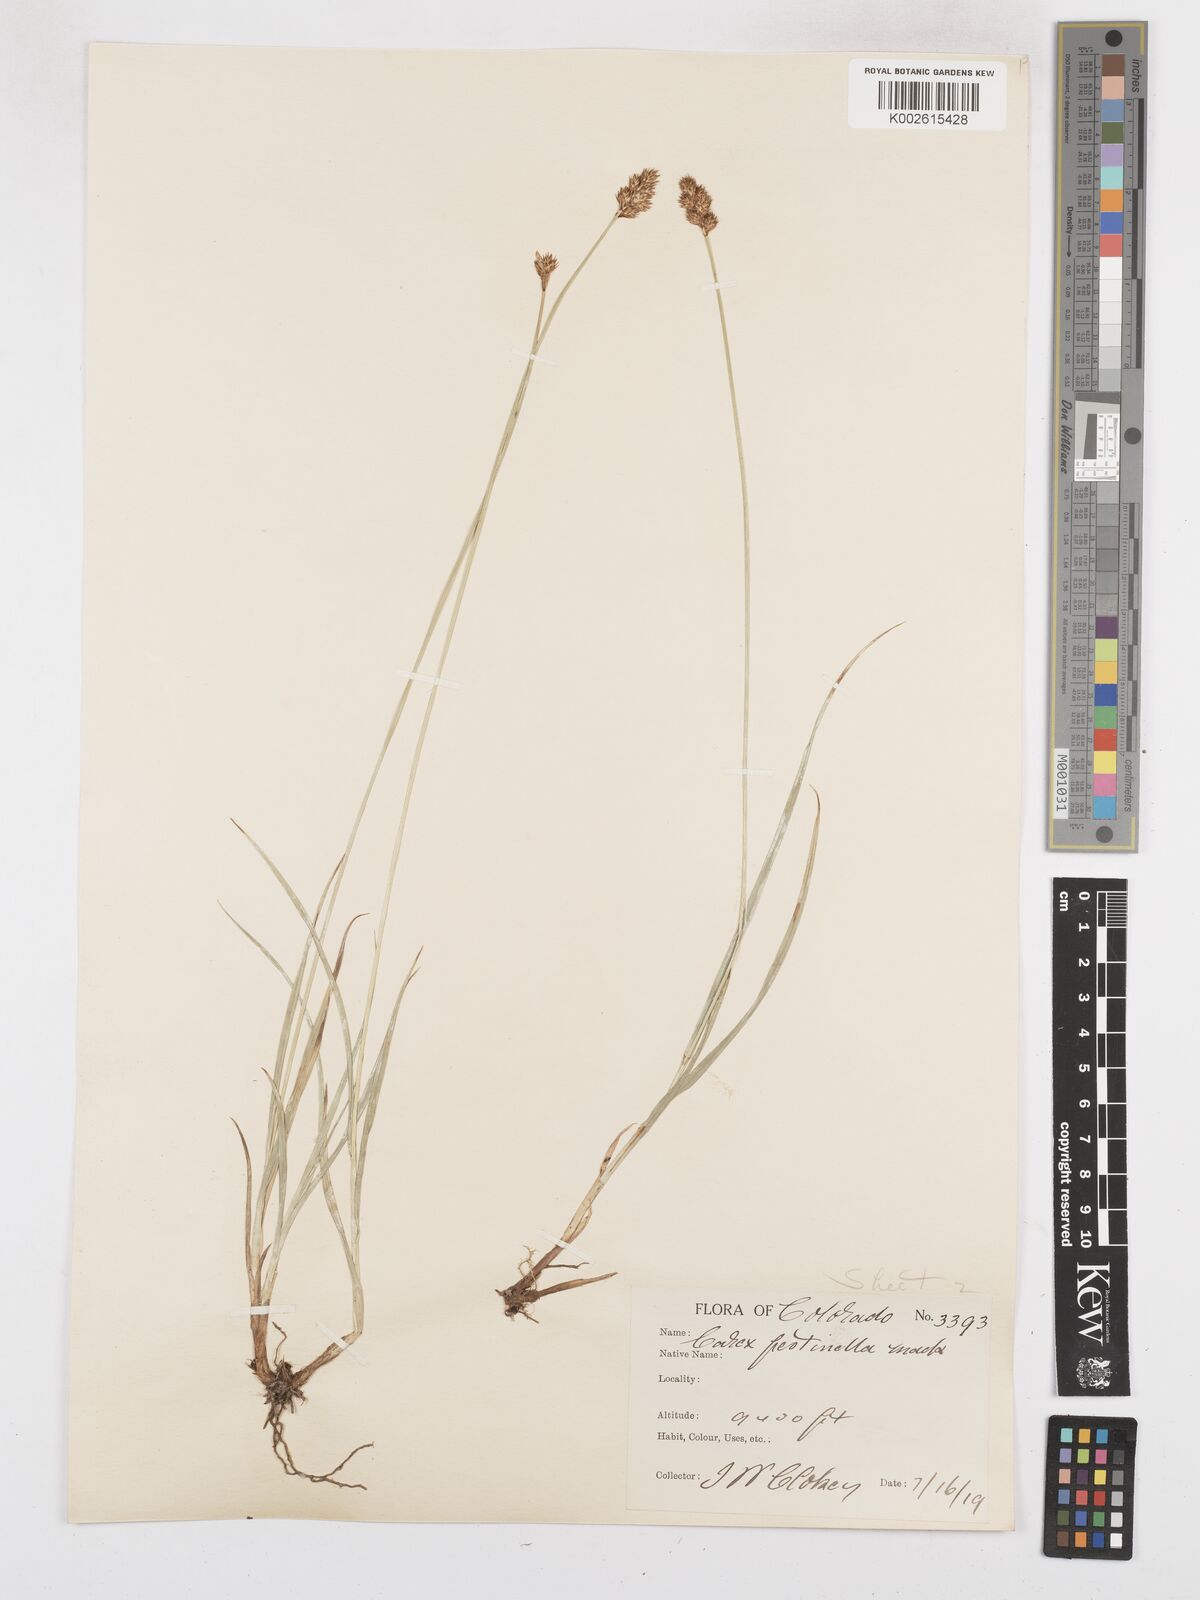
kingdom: Plantae
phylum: Tracheophyta
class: Liliopsida
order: Poales
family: Cyperaceae
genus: Carex
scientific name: Carex microptera
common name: Oval-headed sedge
